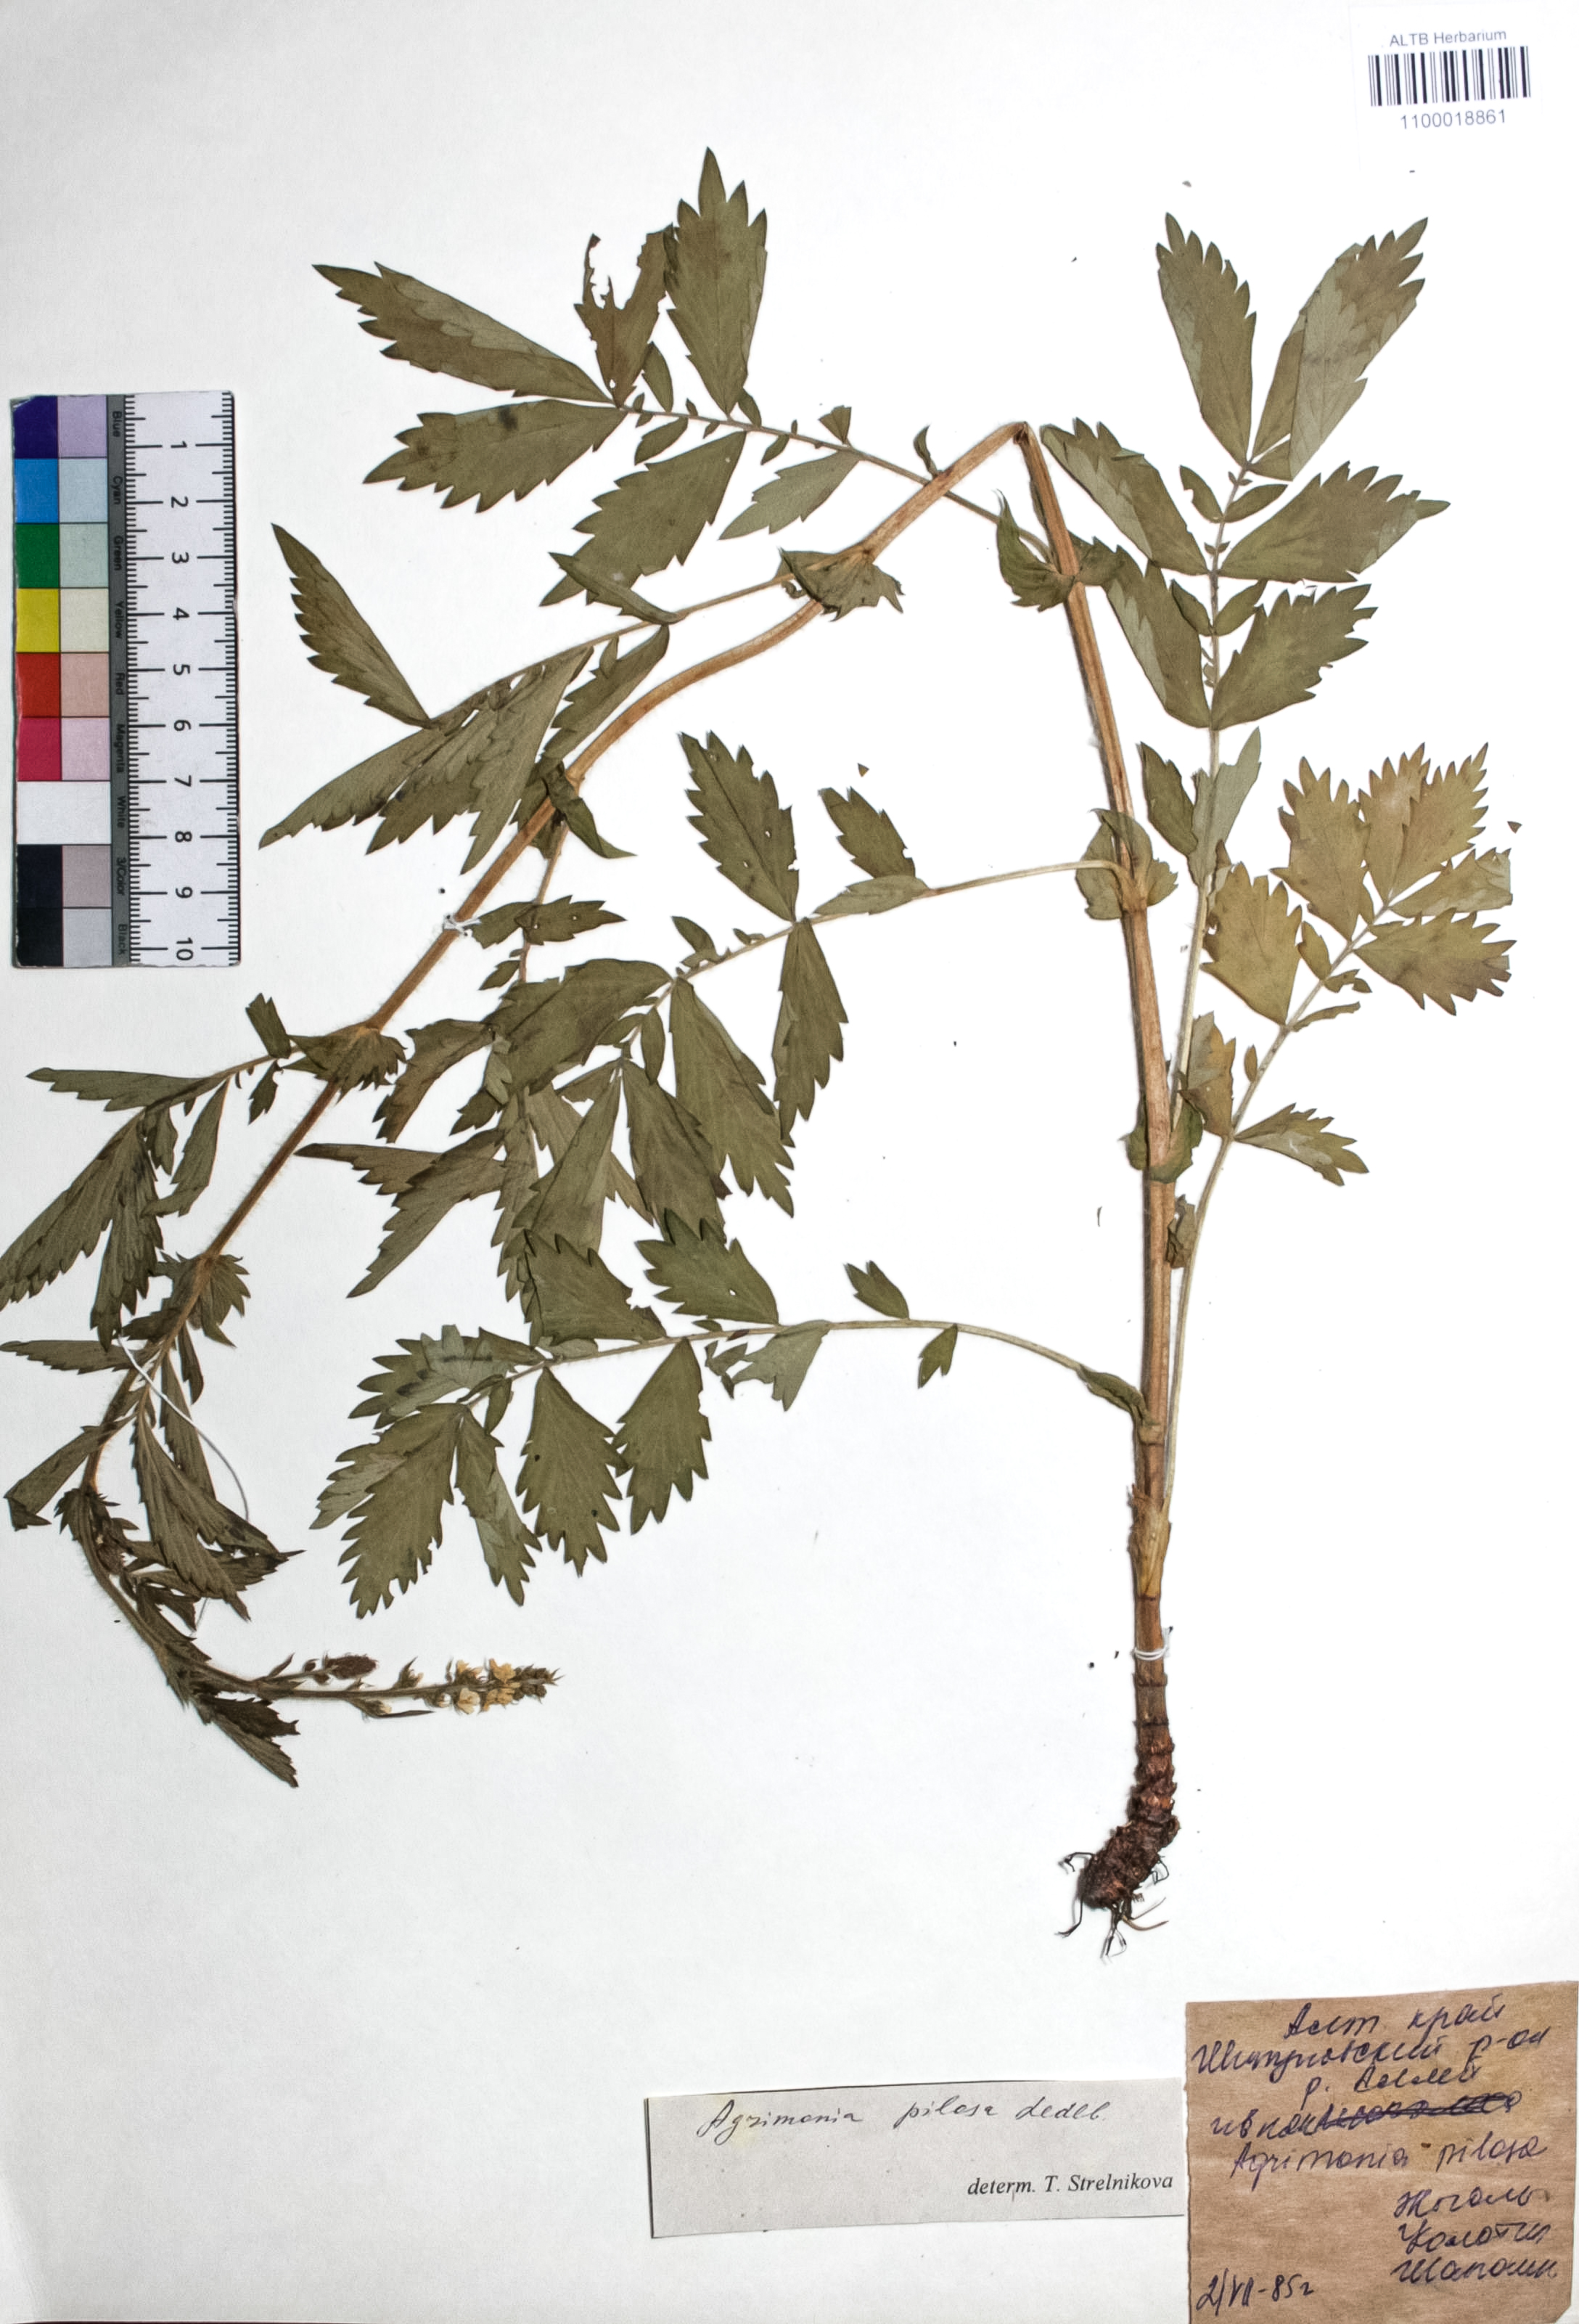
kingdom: Plantae
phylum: Tracheophyta
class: Magnoliopsida
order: Rosales
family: Rosaceae
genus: Agrimonia
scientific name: Agrimonia pilosa
